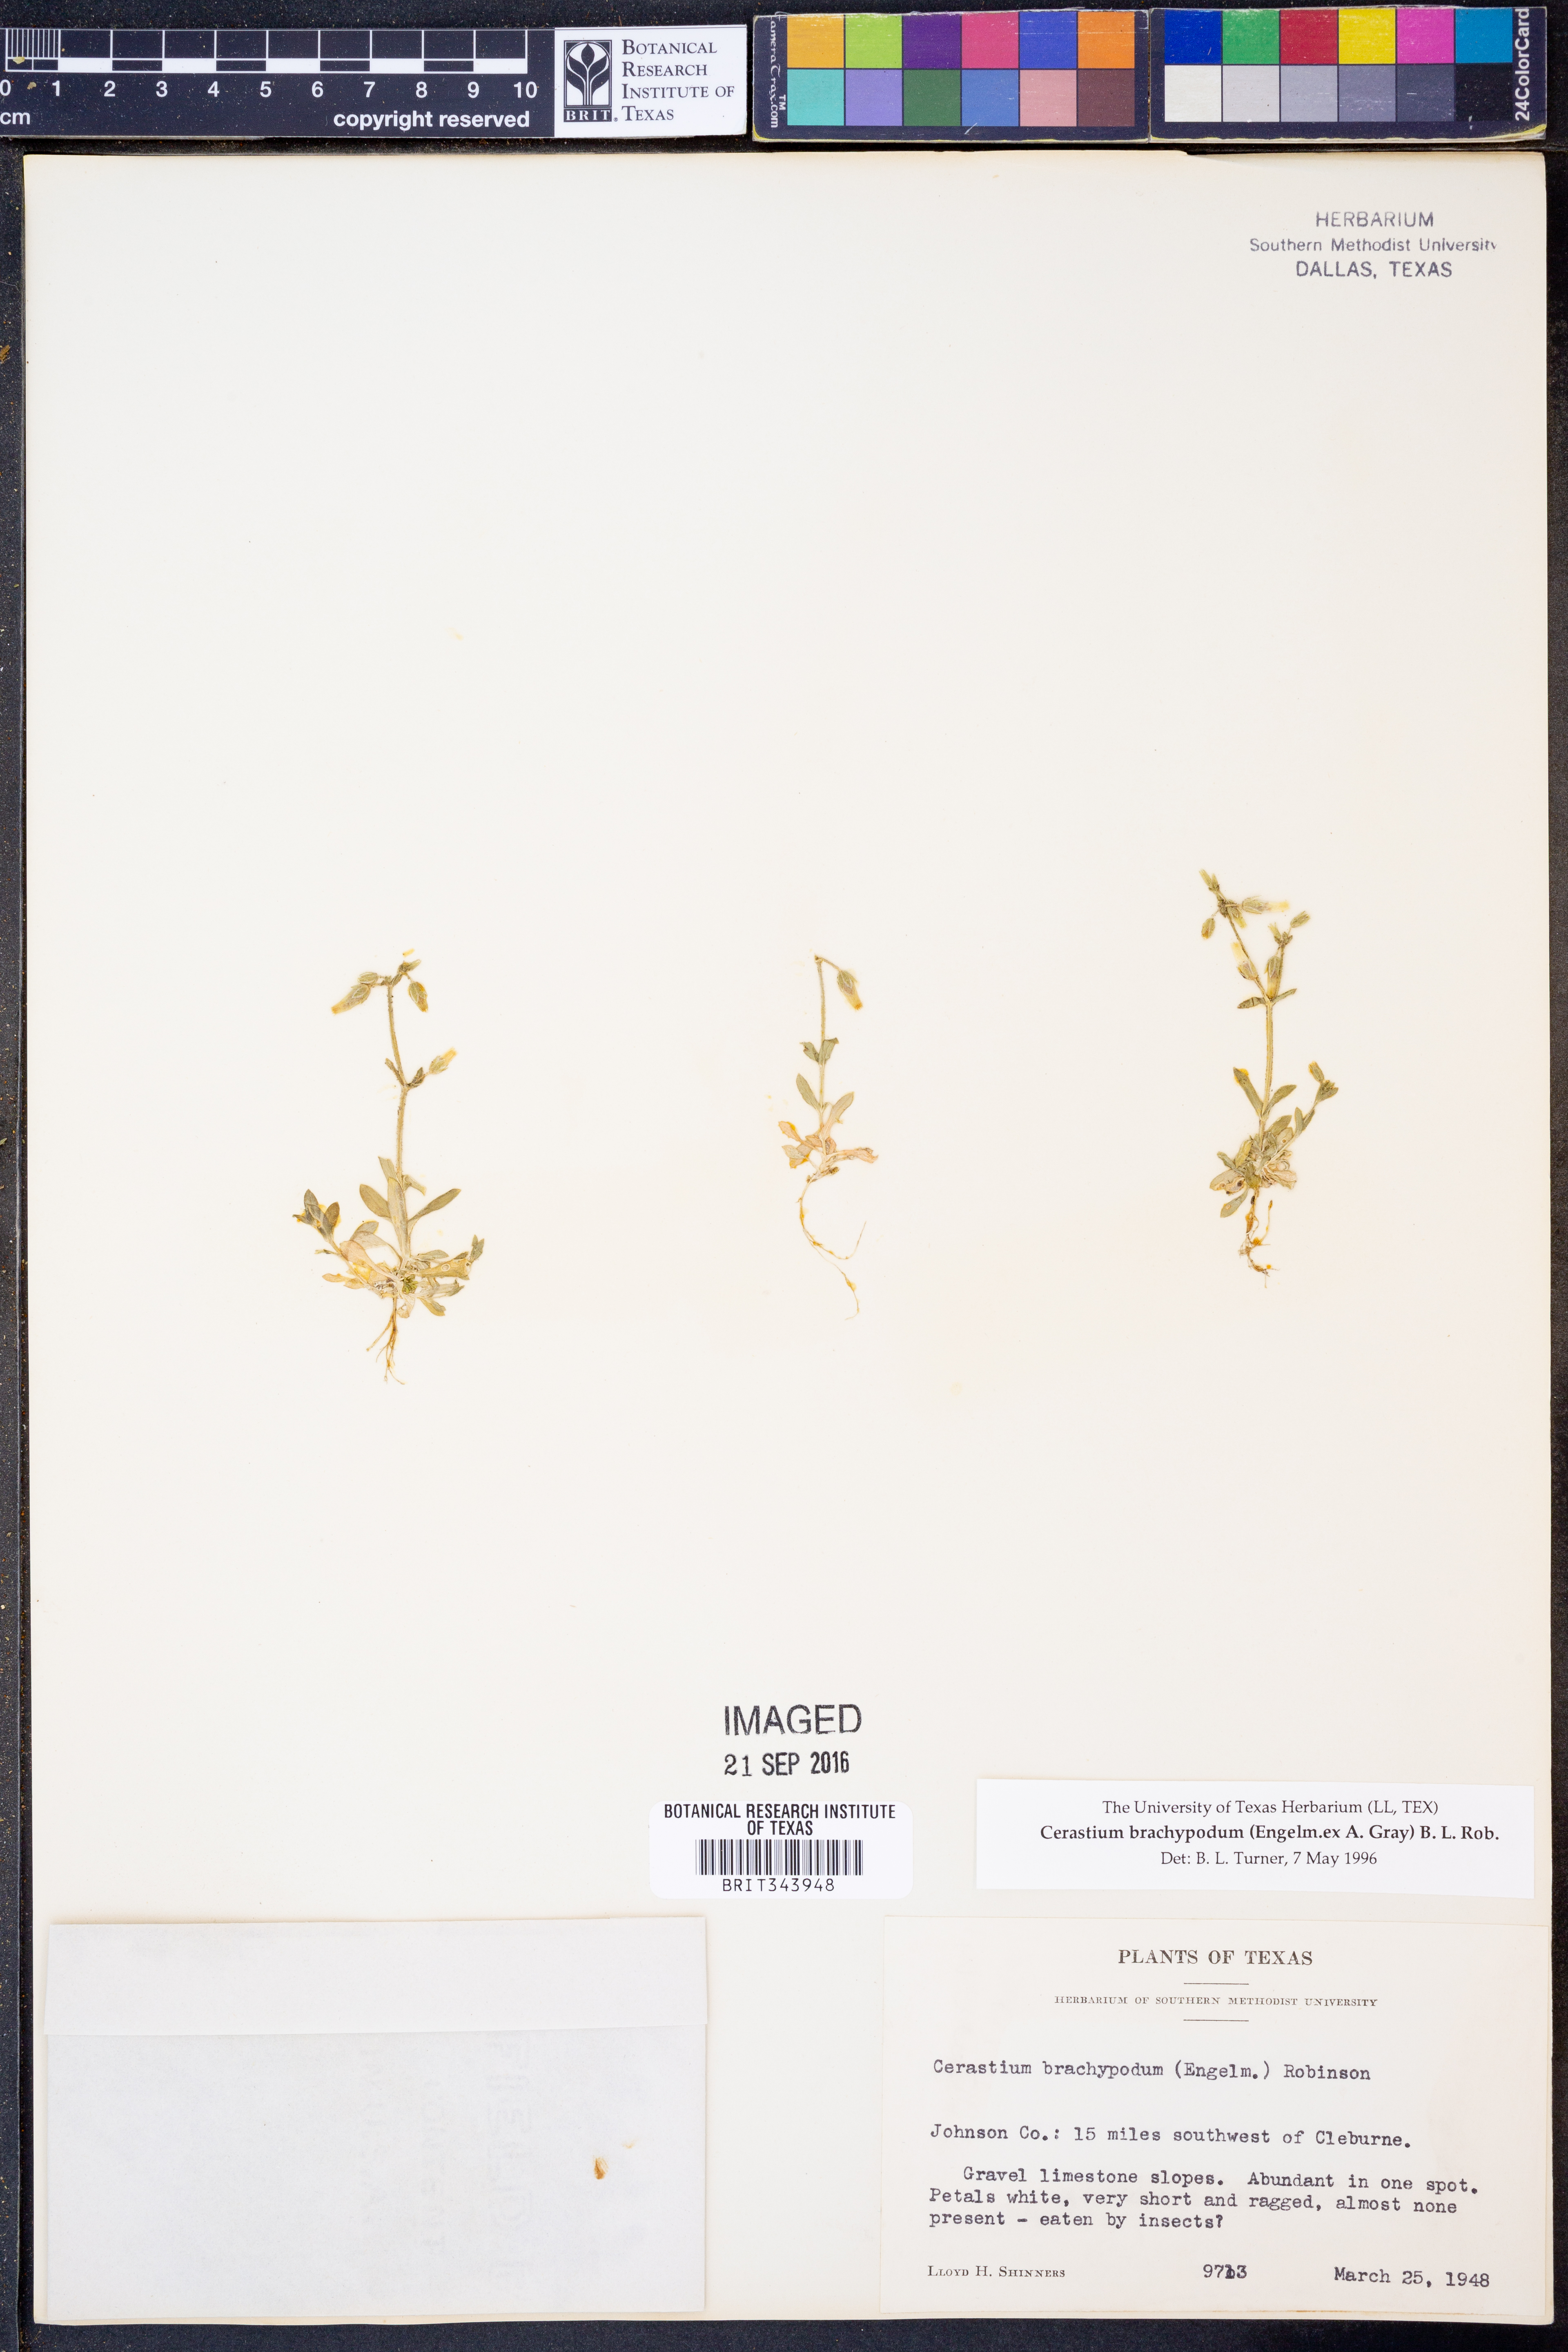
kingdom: Plantae
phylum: Tracheophyta
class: Magnoliopsida
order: Caryophyllales
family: Caryophyllaceae
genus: Cerastium
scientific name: Cerastium brachypodum
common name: Short-pedicelled nodding chickweed
